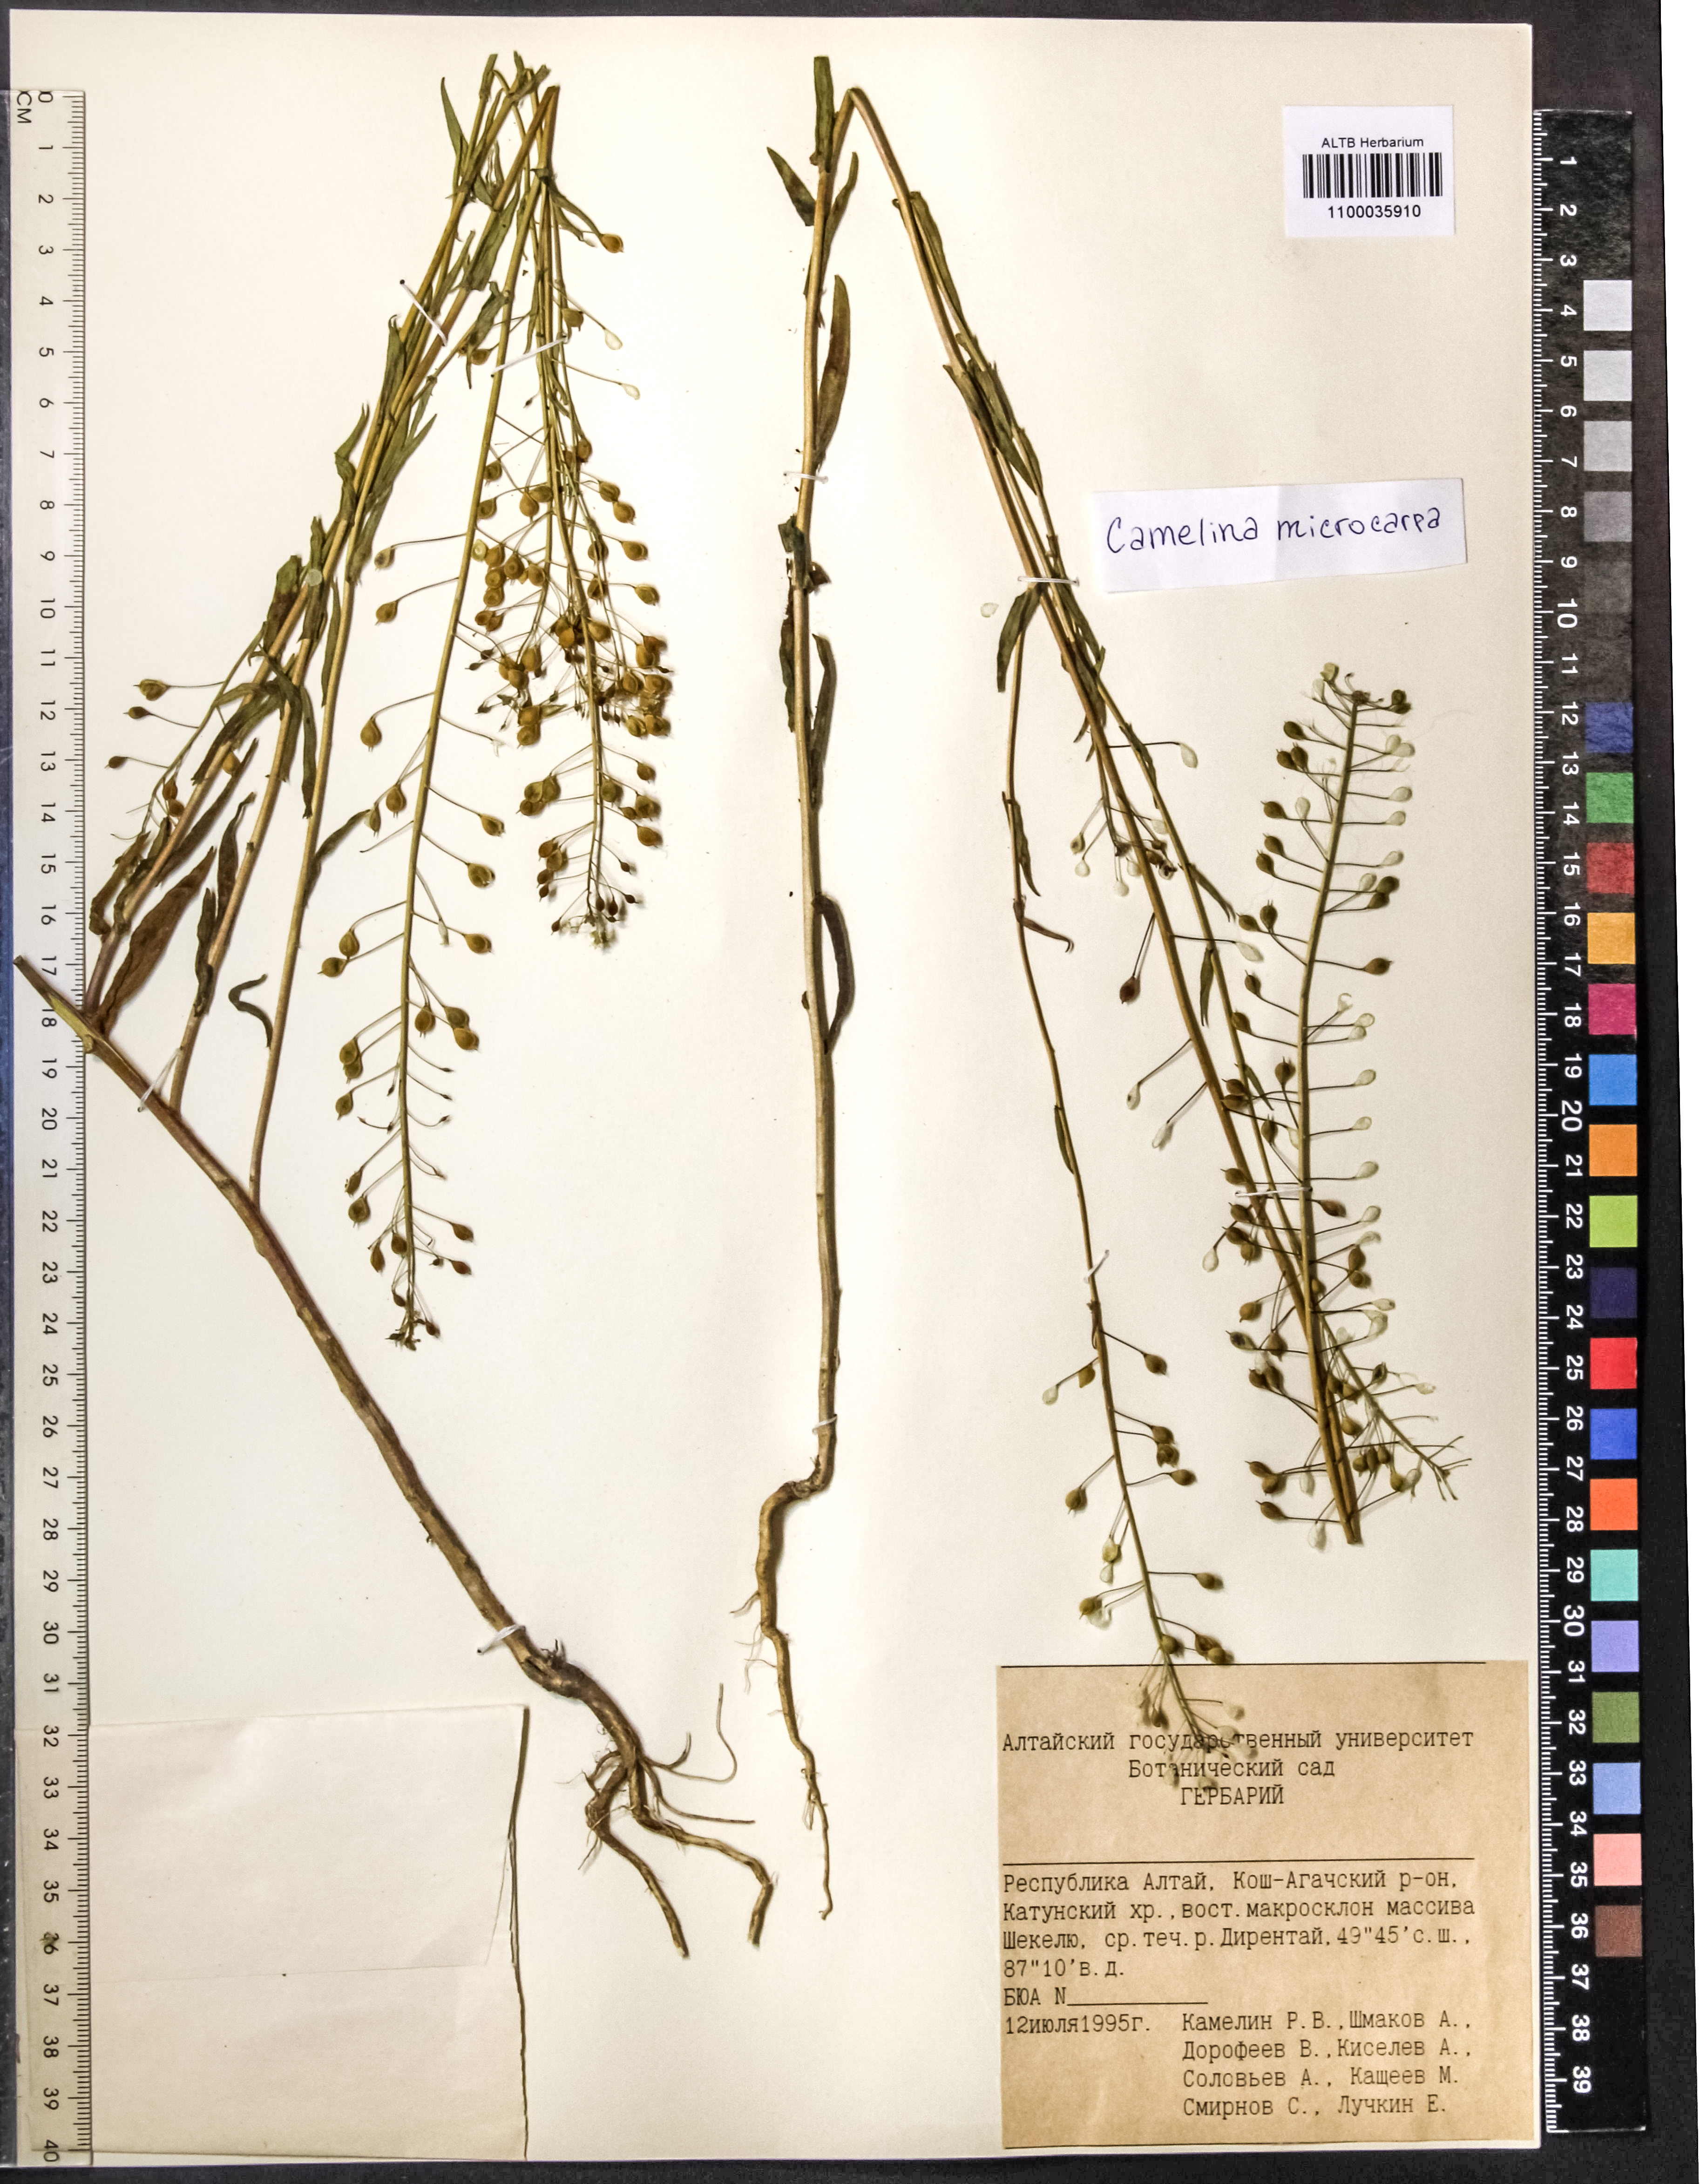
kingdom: Plantae
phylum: Tracheophyta
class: Magnoliopsida
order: Brassicales
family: Brassicaceae
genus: Camelina
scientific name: Camelina microcarpa
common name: Lesser gold-of-pleasure
